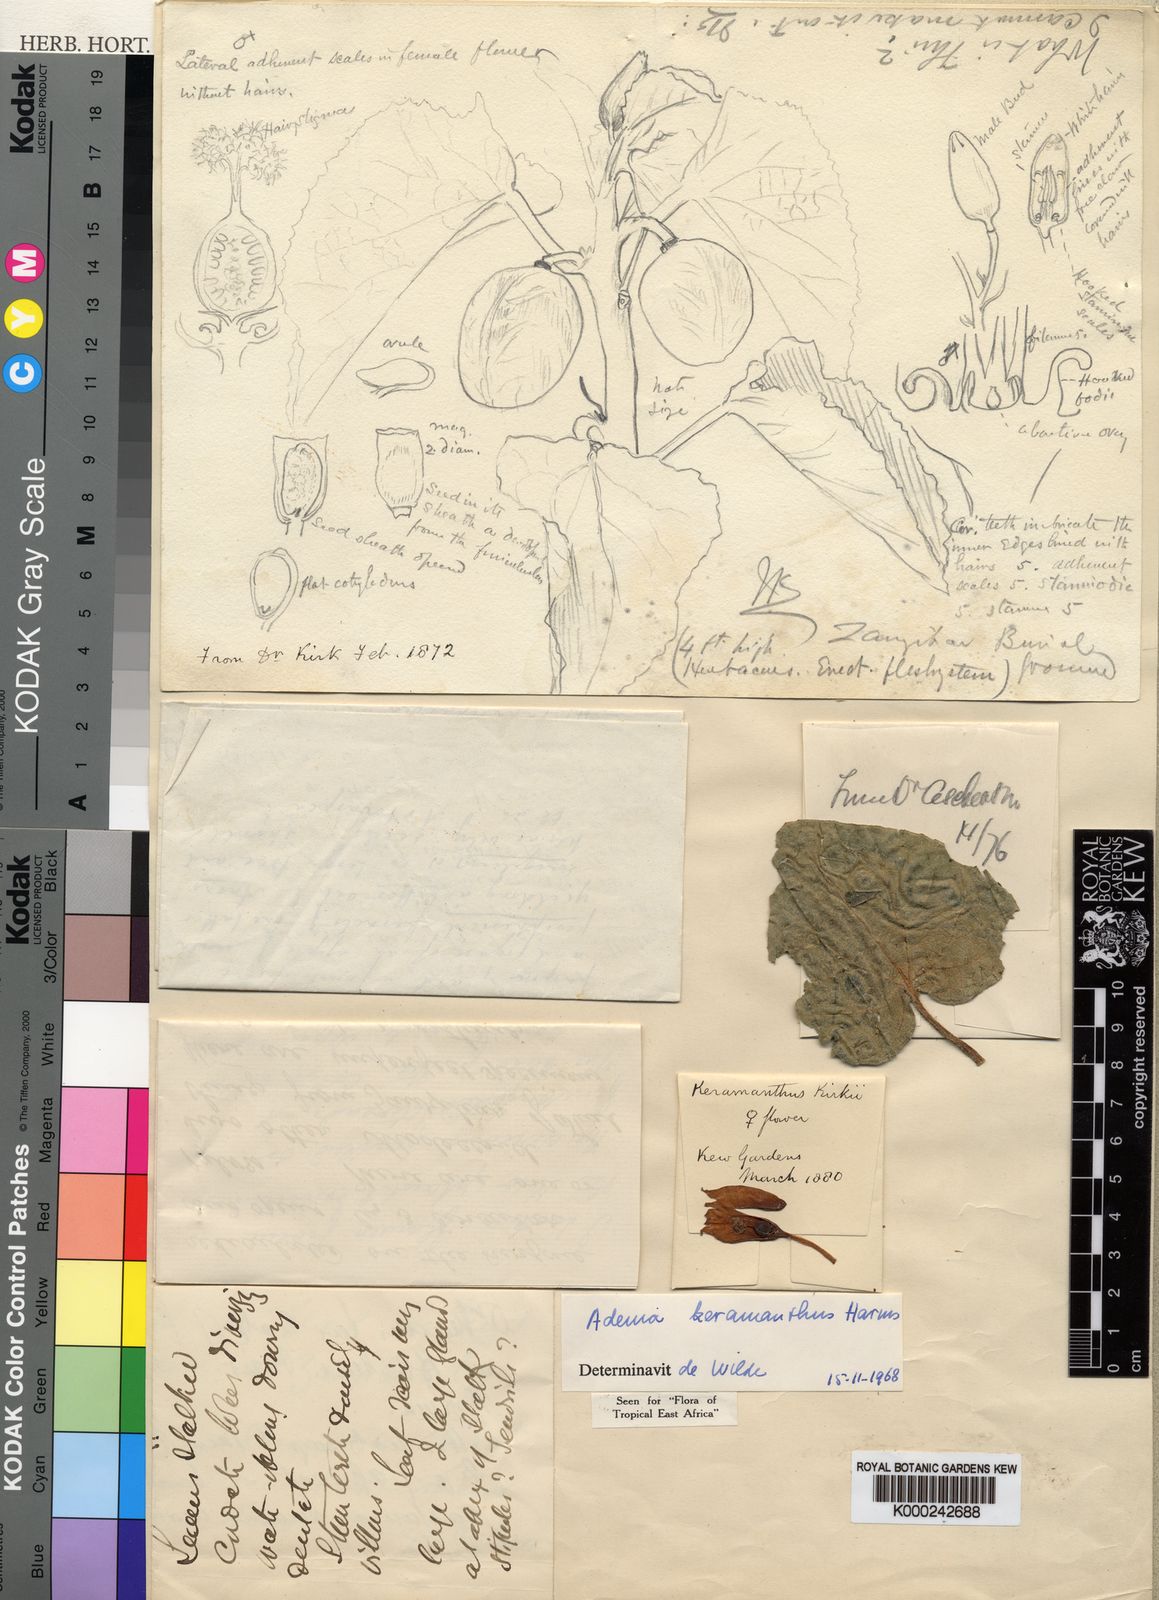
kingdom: Plantae
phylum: Tracheophyta
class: Magnoliopsida
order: Malpighiales
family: Passifloraceae
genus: Adenia
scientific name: Adenia keramanthus
